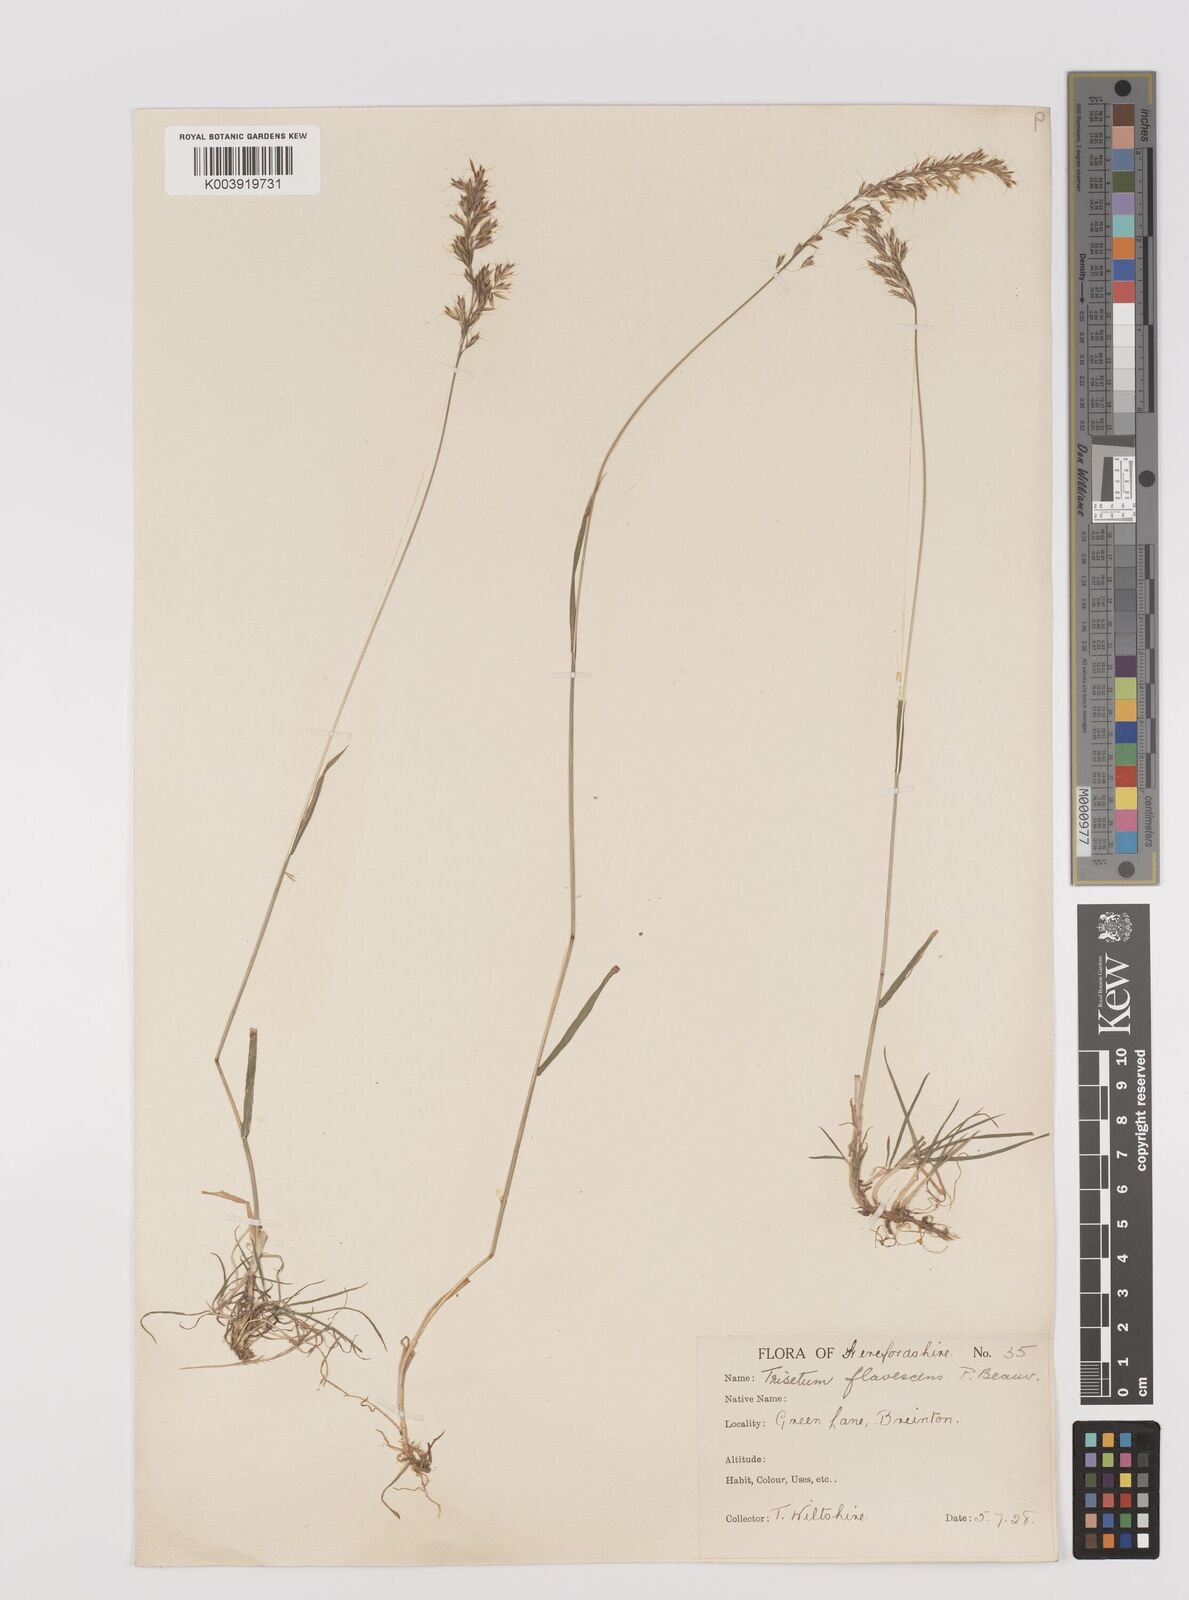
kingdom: Plantae
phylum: Tracheophyta
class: Liliopsida
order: Poales
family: Poaceae
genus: Trisetum
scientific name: Trisetum flavescens
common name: Yellow oat-grass
